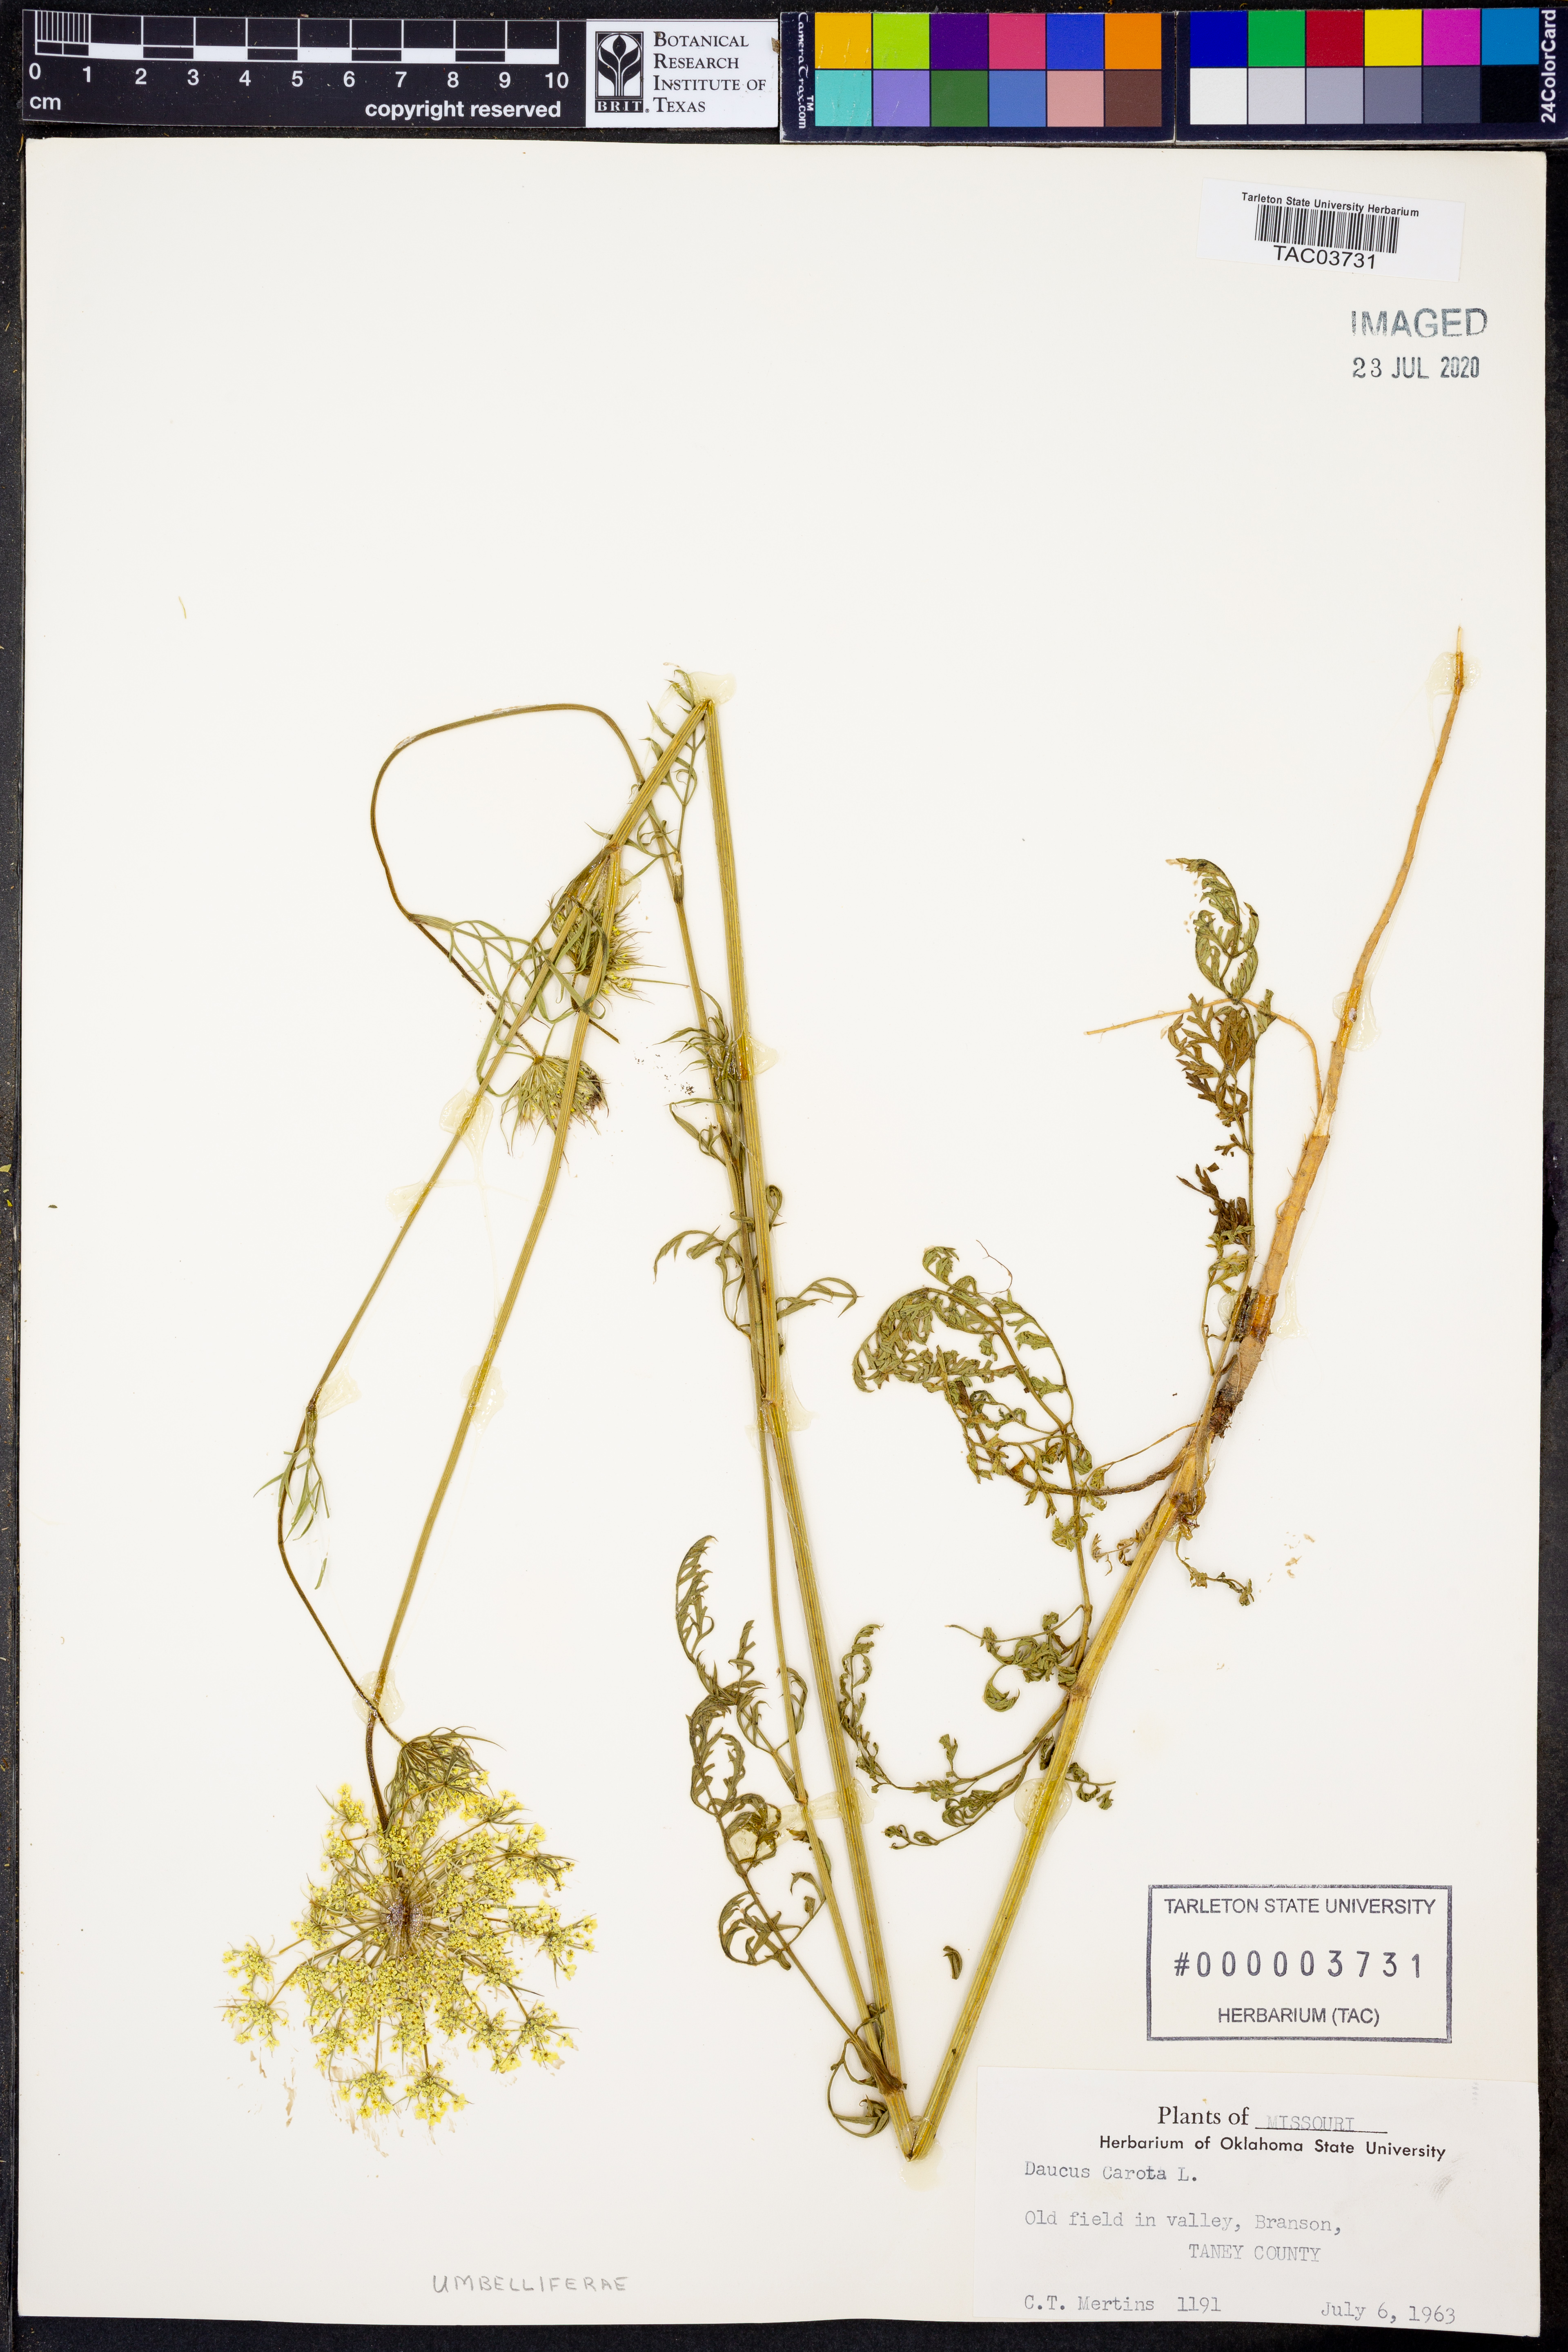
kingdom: Plantae
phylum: Tracheophyta
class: Magnoliopsida
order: Apiales
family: Apiaceae
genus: Daucus
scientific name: Daucus carota
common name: Wild carrot
